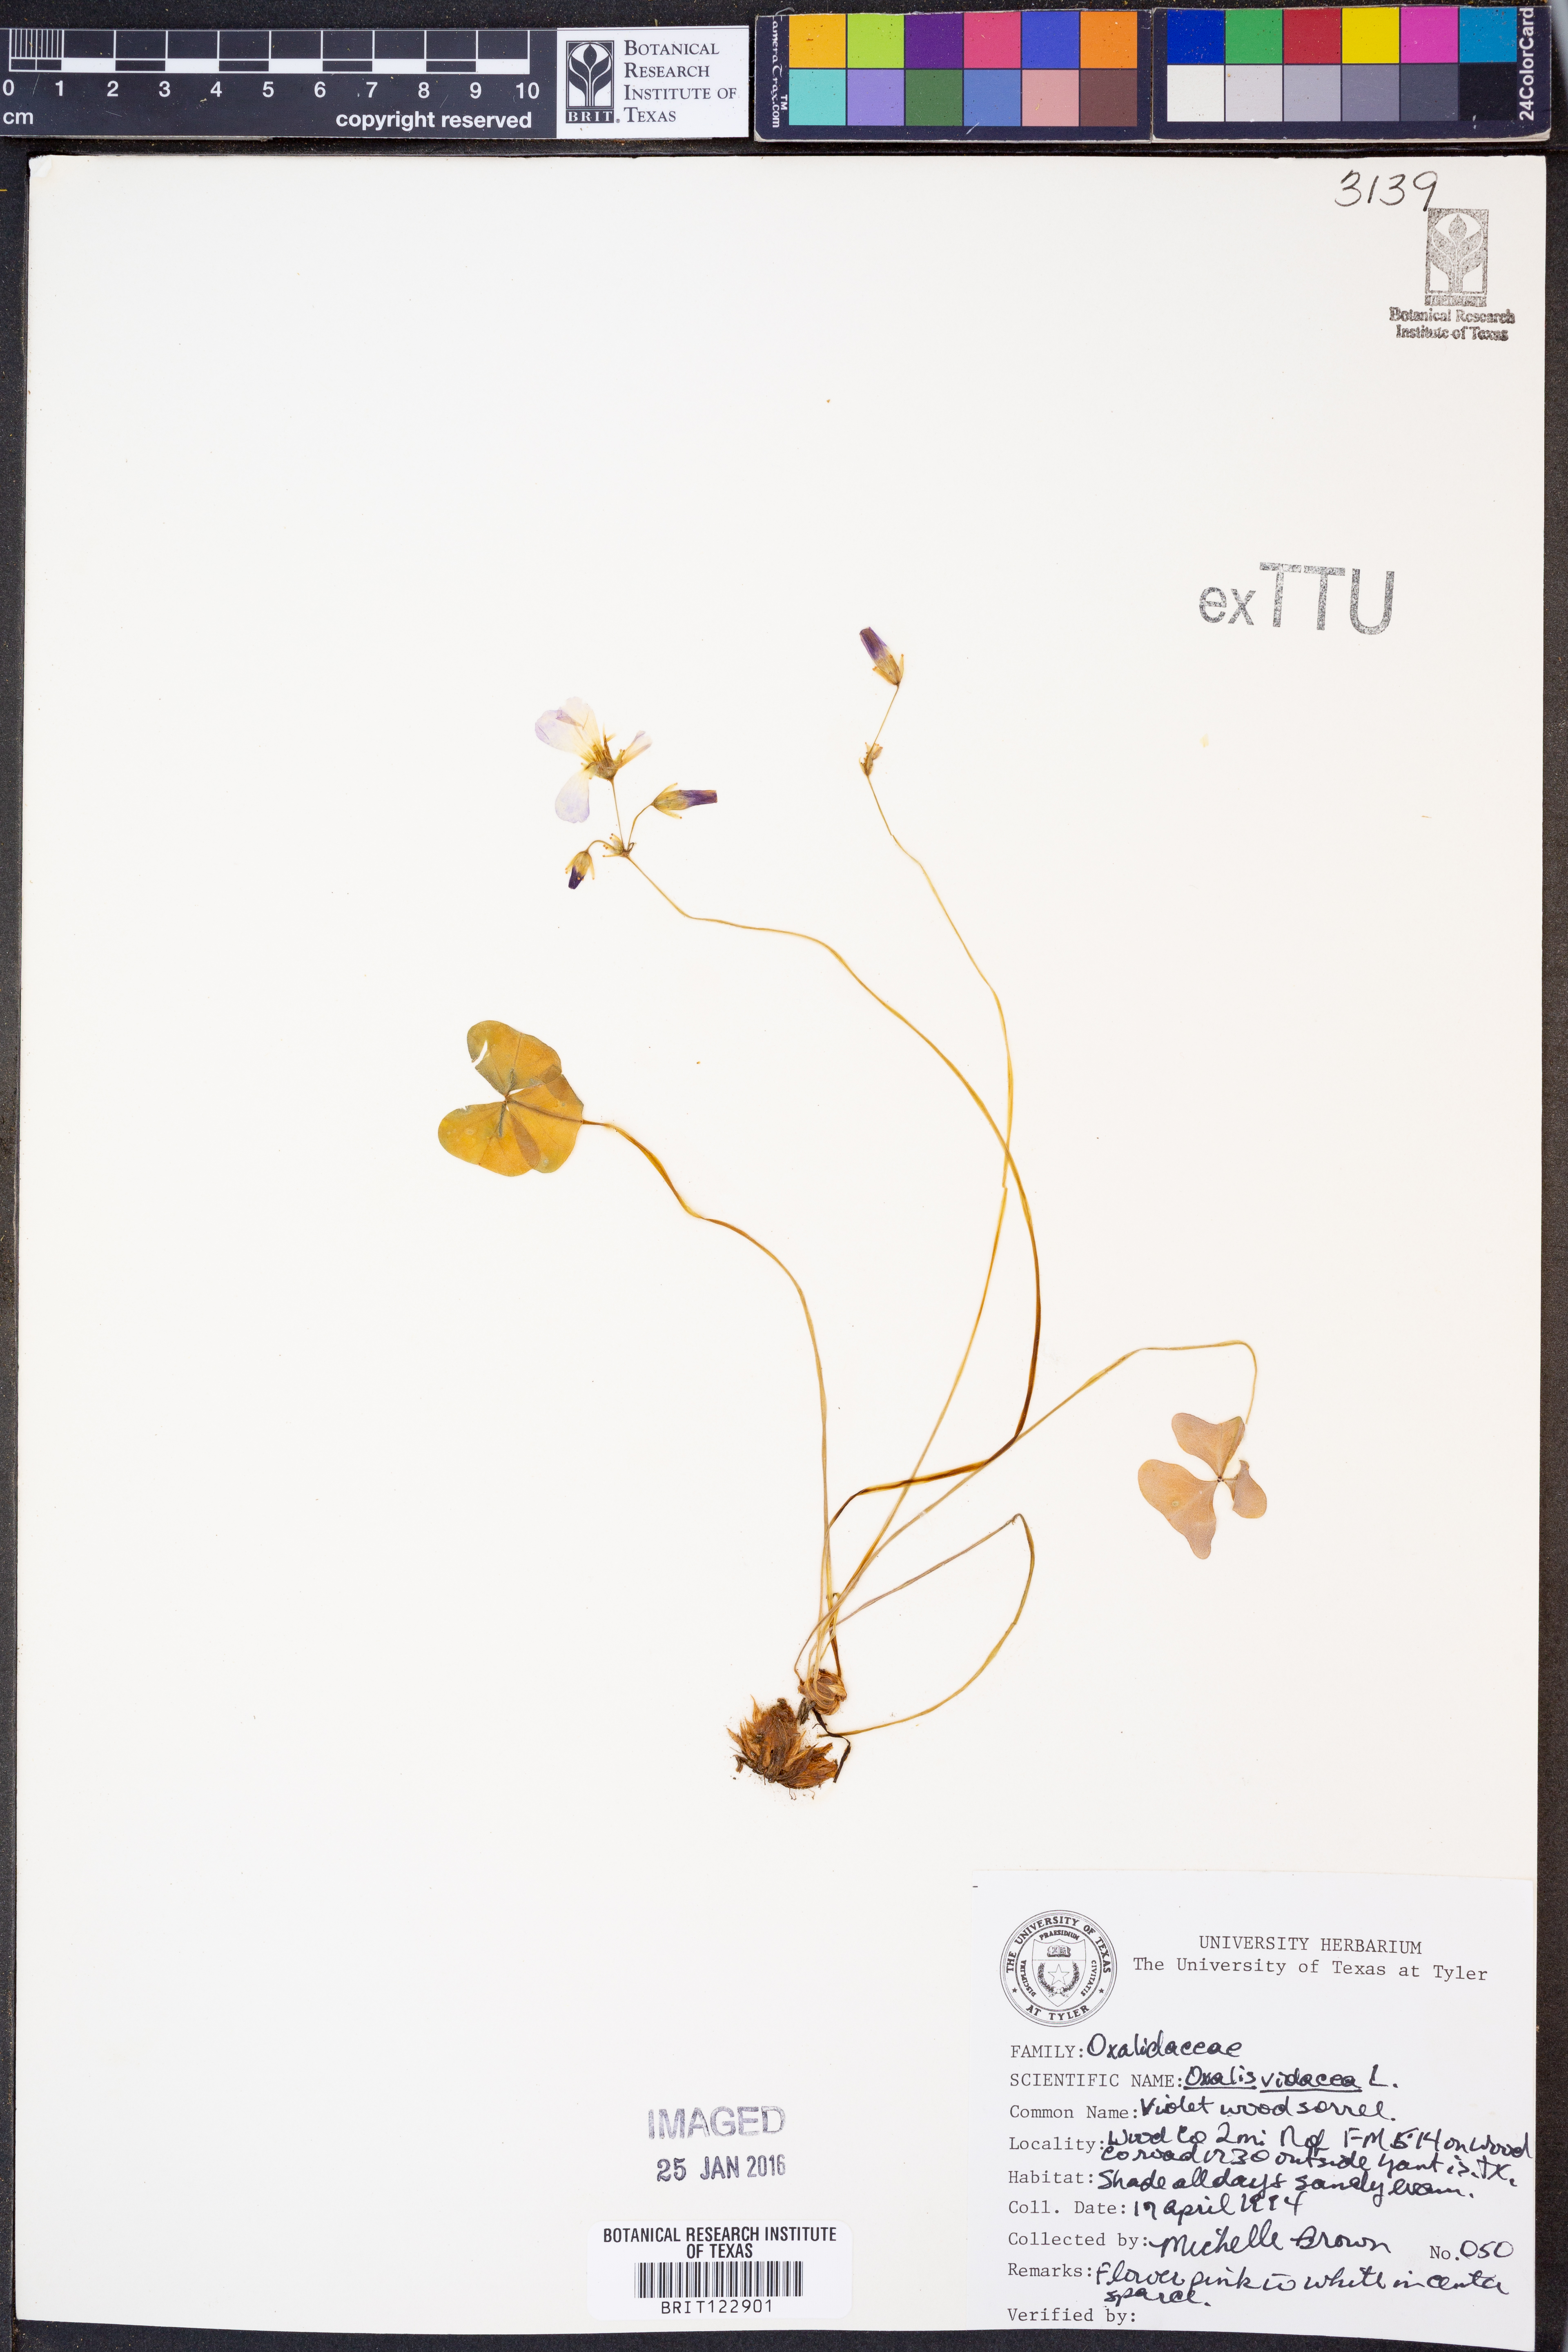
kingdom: Plantae
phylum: Tracheophyta
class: Magnoliopsida
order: Oxalidales
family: Oxalidaceae
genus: Oxalis
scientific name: Oxalis violacea
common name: Violet wood-sorrel
